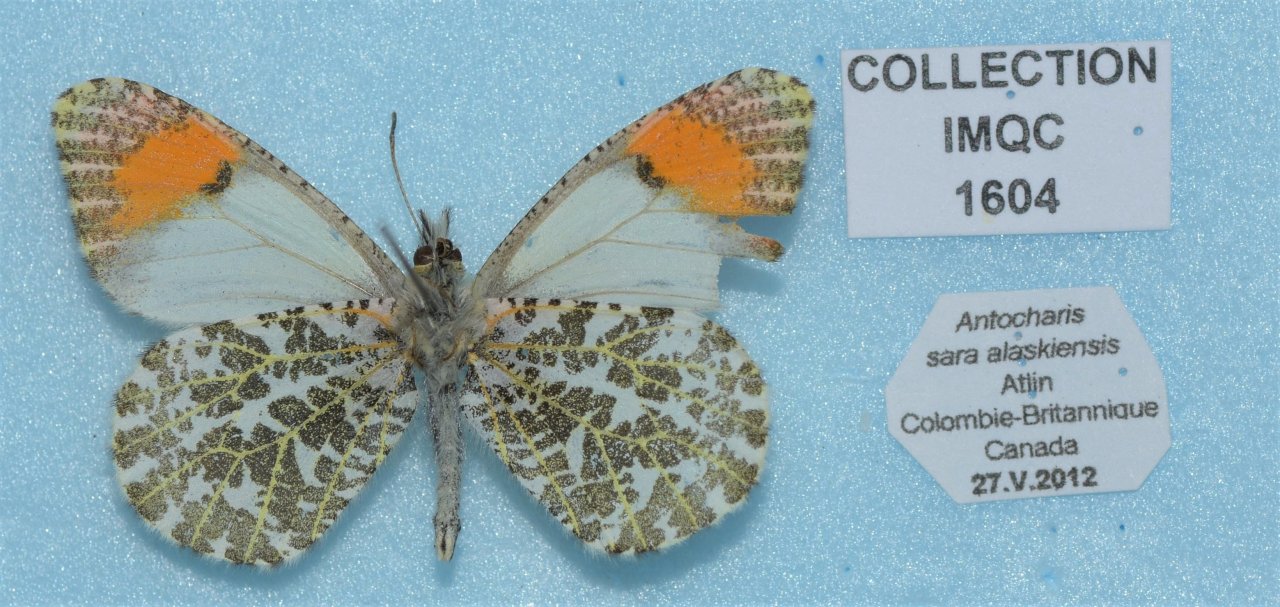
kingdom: Animalia
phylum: Arthropoda
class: Insecta
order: Lepidoptera
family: Pieridae
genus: Anthocharis
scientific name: Anthocharis sara
